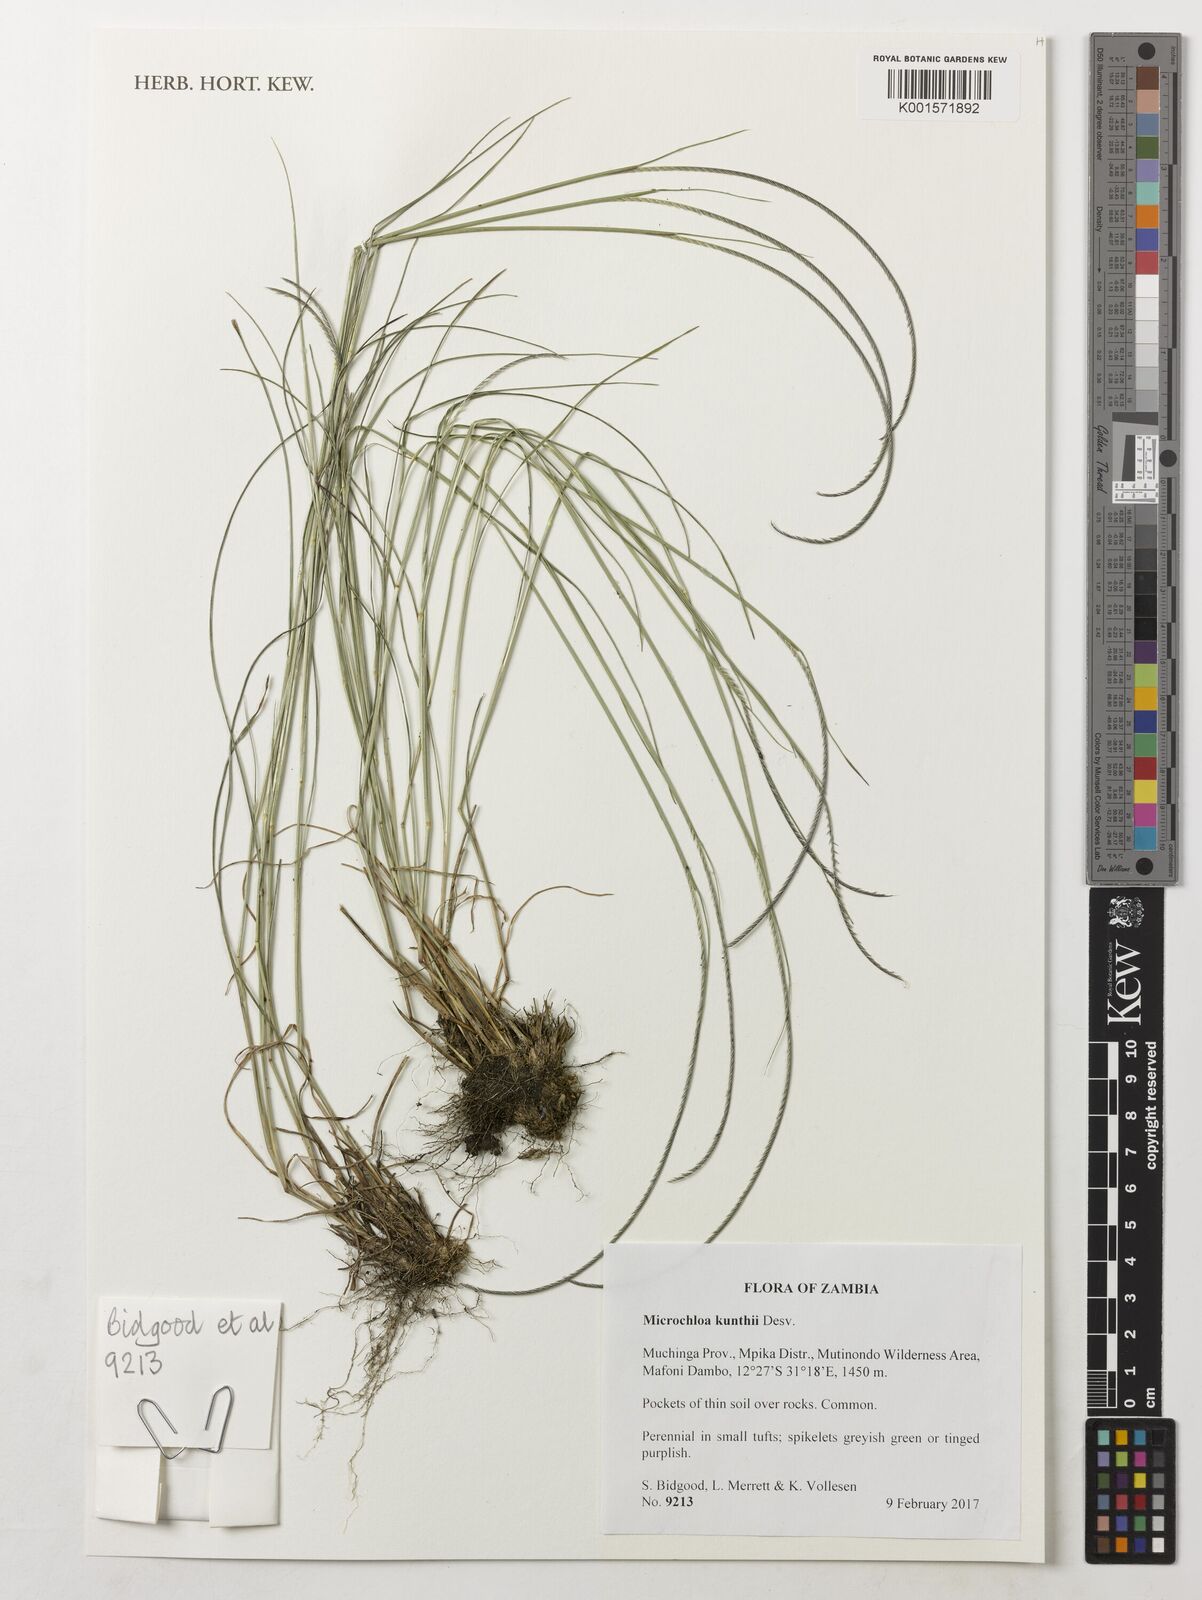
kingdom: Plantae
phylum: Tracheophyta
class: Liliopsida
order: Poales
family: Poaceae
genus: Microchloa
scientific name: Microchloa kunthii
